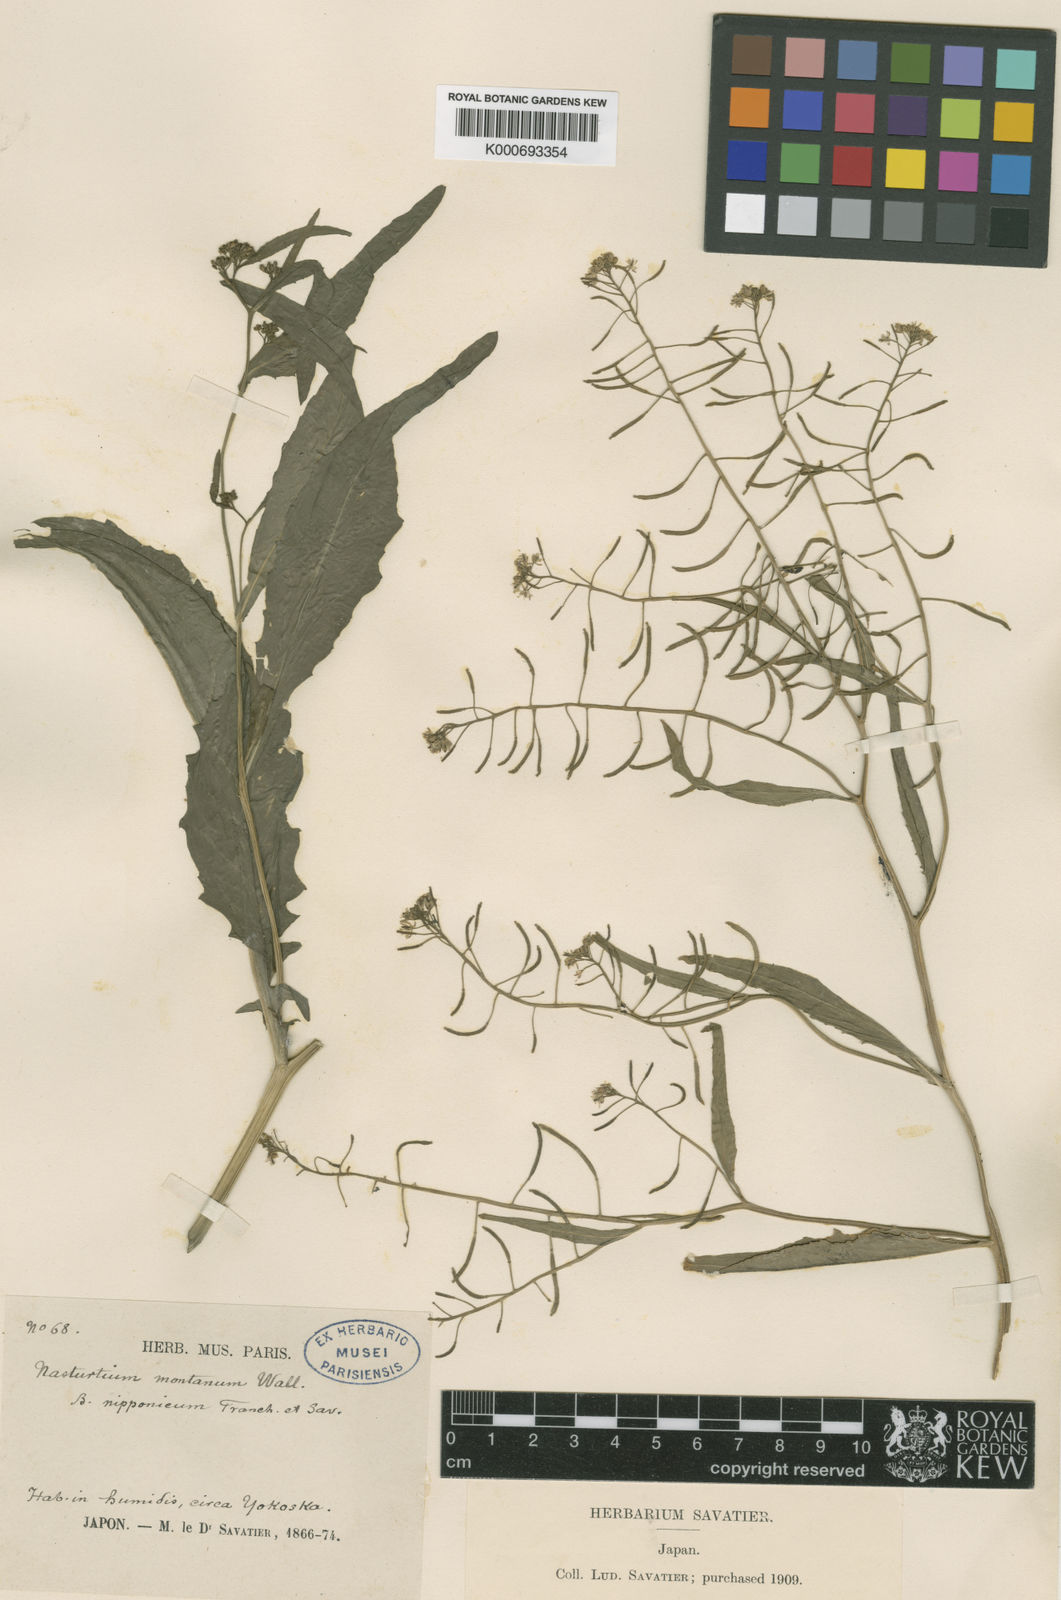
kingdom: Plantae
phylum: Tracheophyta
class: Magnoliopsida
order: Brassicales
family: Brassicaceae
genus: Rorippa
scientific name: Rorippa dubia
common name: Variableleaf yellowcress
